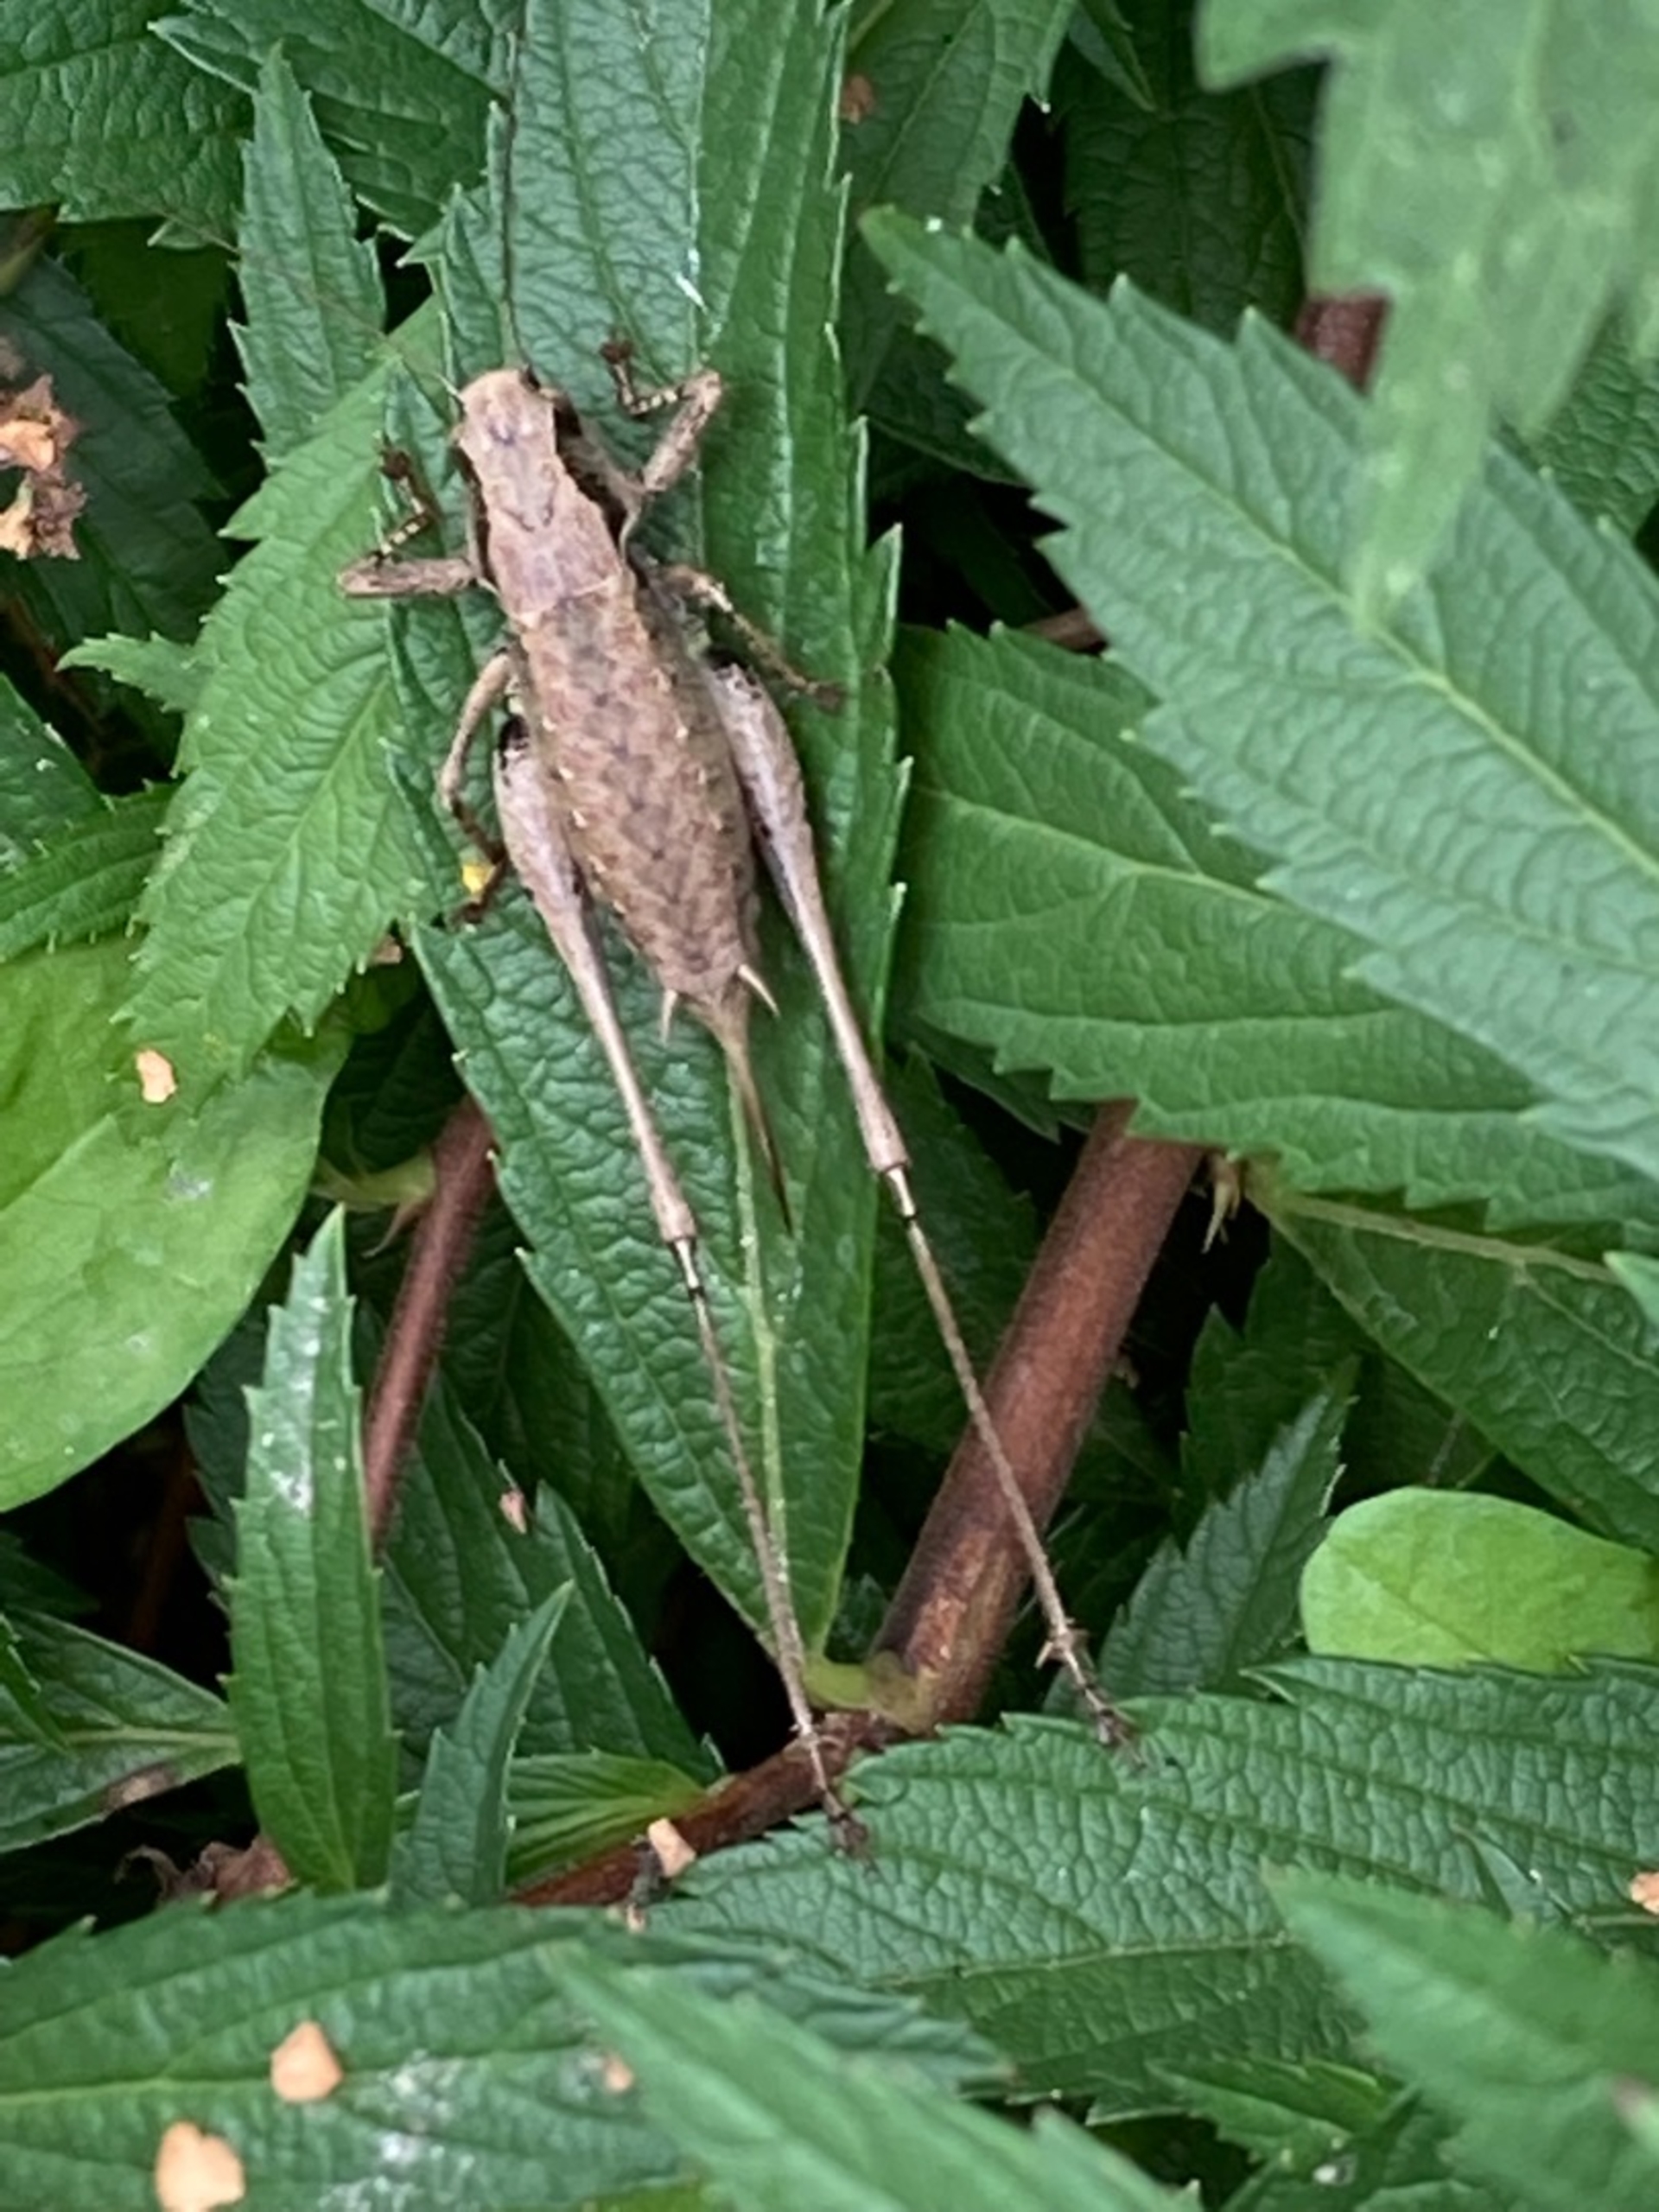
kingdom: Animalia
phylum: Arthropoda
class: Insecta
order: Orthoptera
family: Tettigoniidae
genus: Pholidoptera
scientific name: Pholidoptera griseoaptera
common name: Buskgræshoppe
